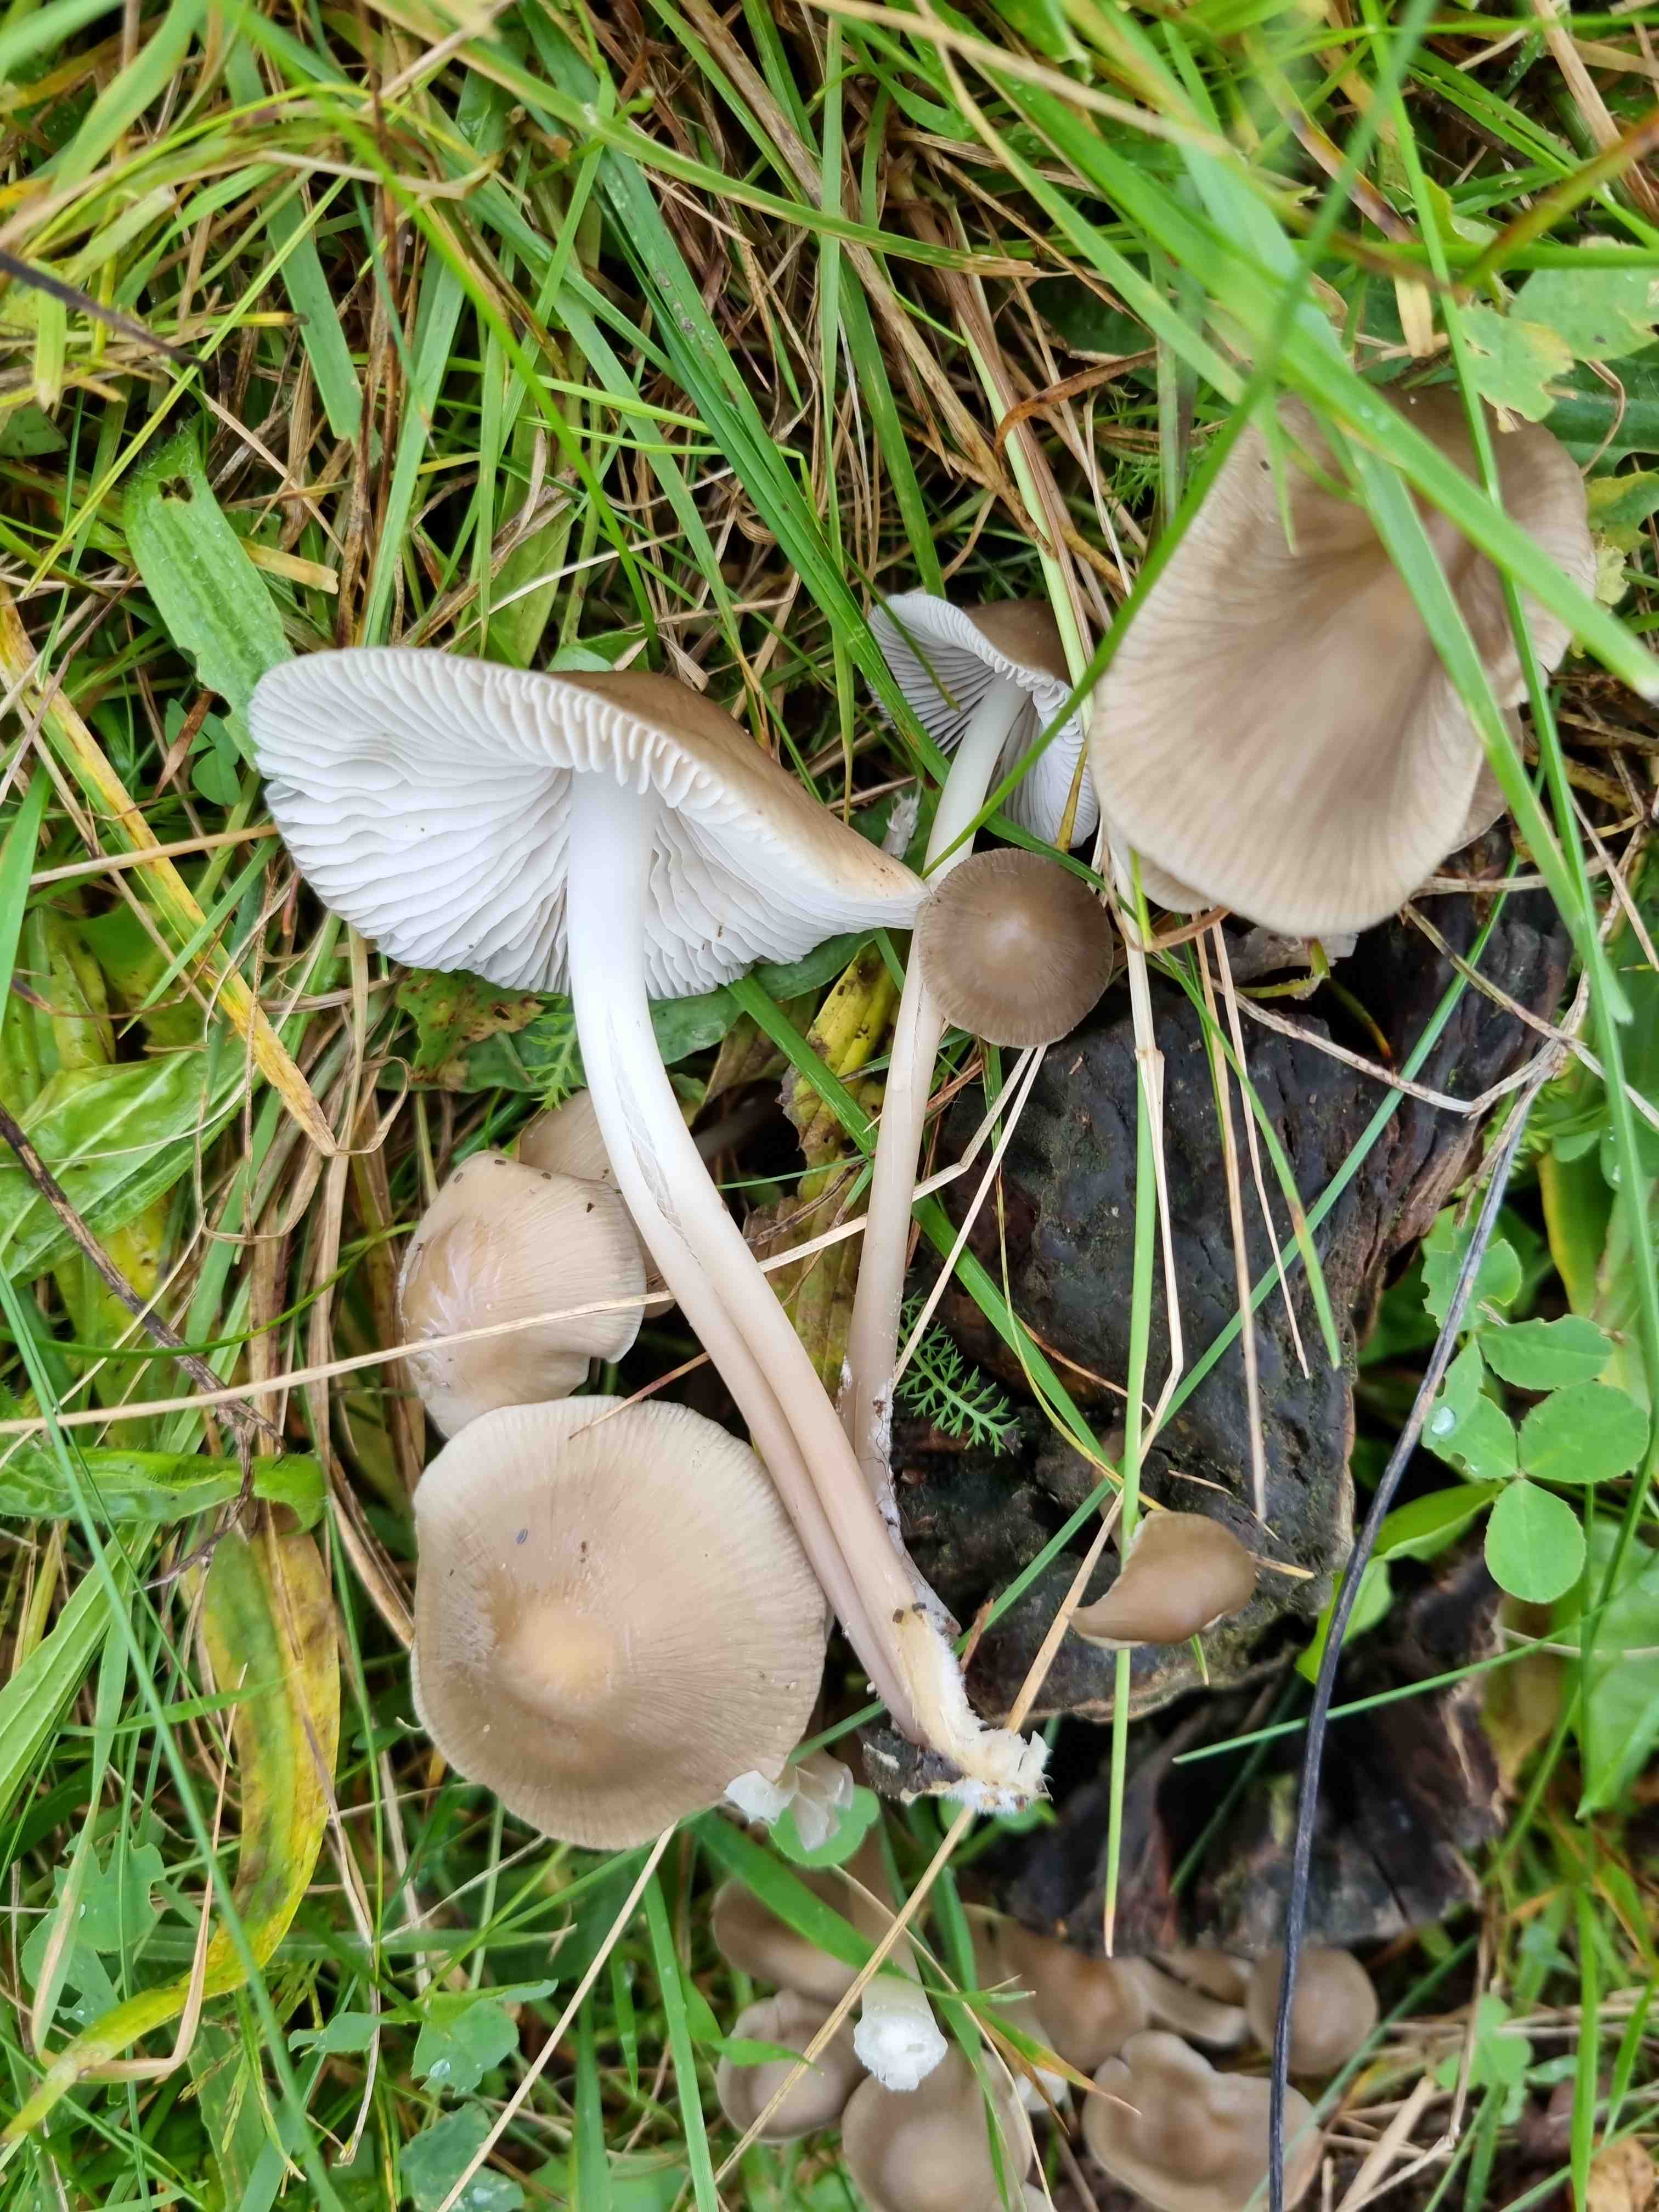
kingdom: Fungi
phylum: Basidiomycota
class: Agaricomycetes
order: Agaricales
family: Mycenaceae
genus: Mycena
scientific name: Mycena galericulata
